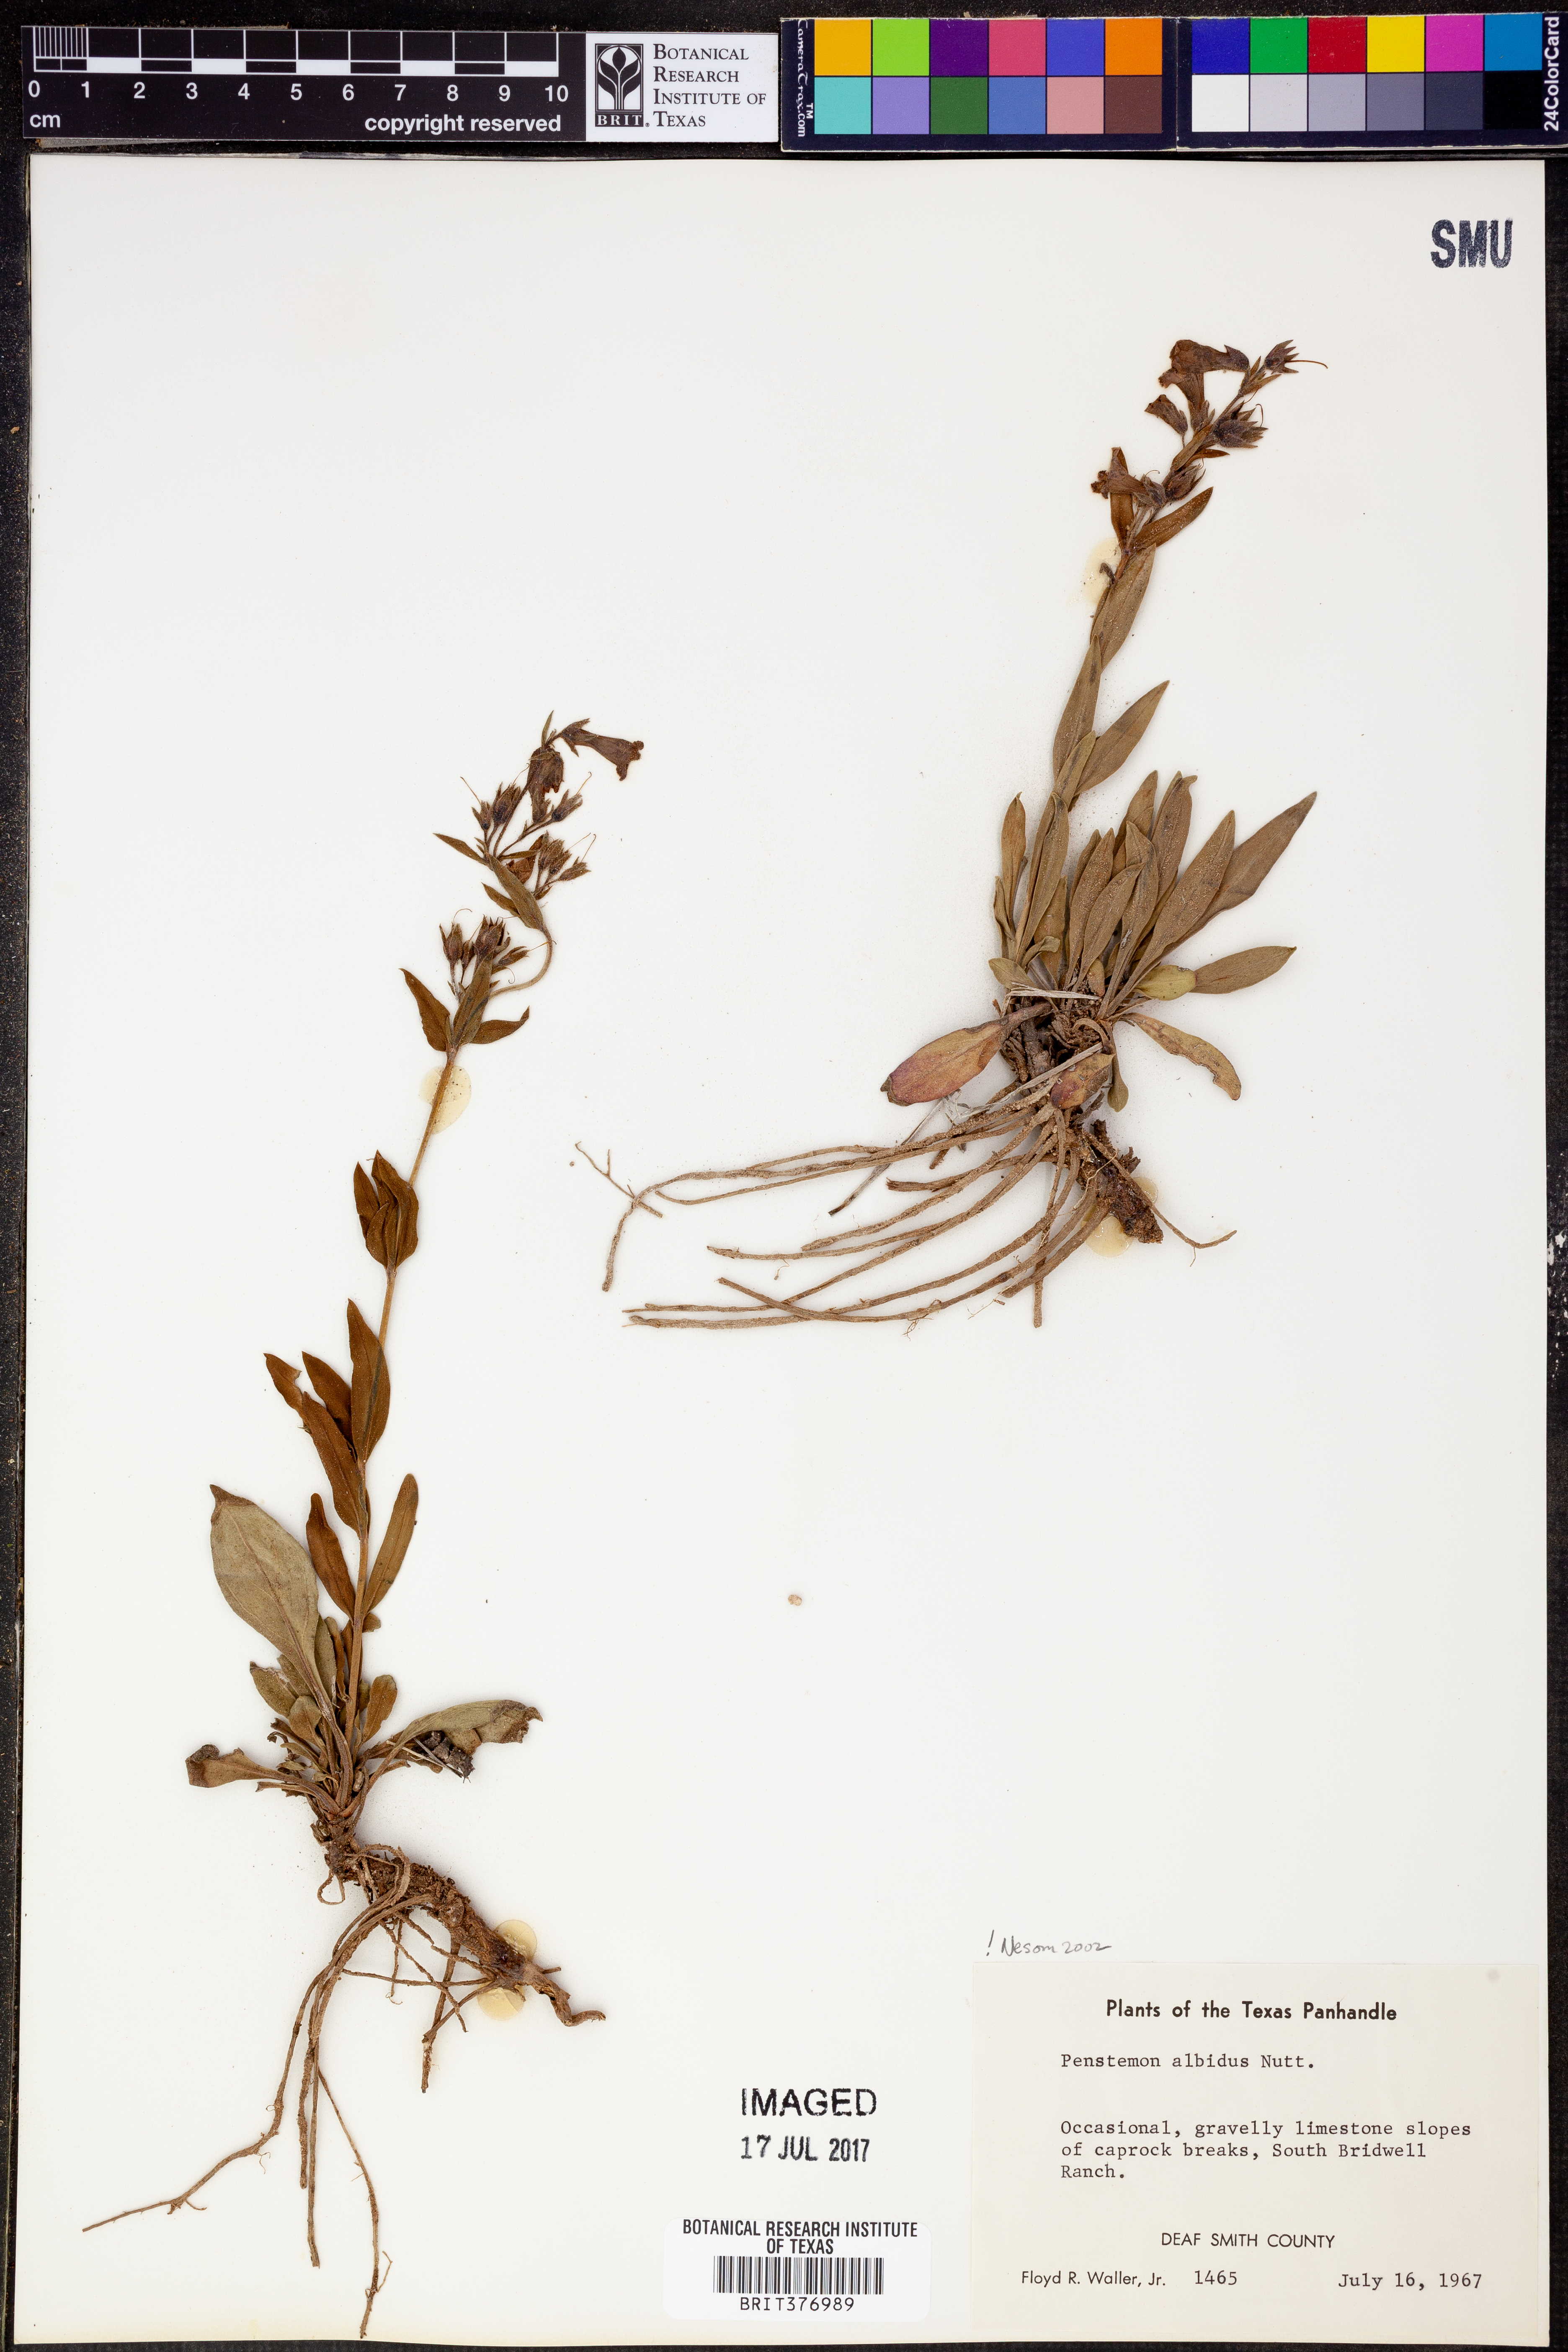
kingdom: Plantae
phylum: Tracheophyta
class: Magnoliopsida
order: Lamiales
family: Plantaginaceae
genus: Penstemon
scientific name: Penstemon albidus
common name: White beardtongue
